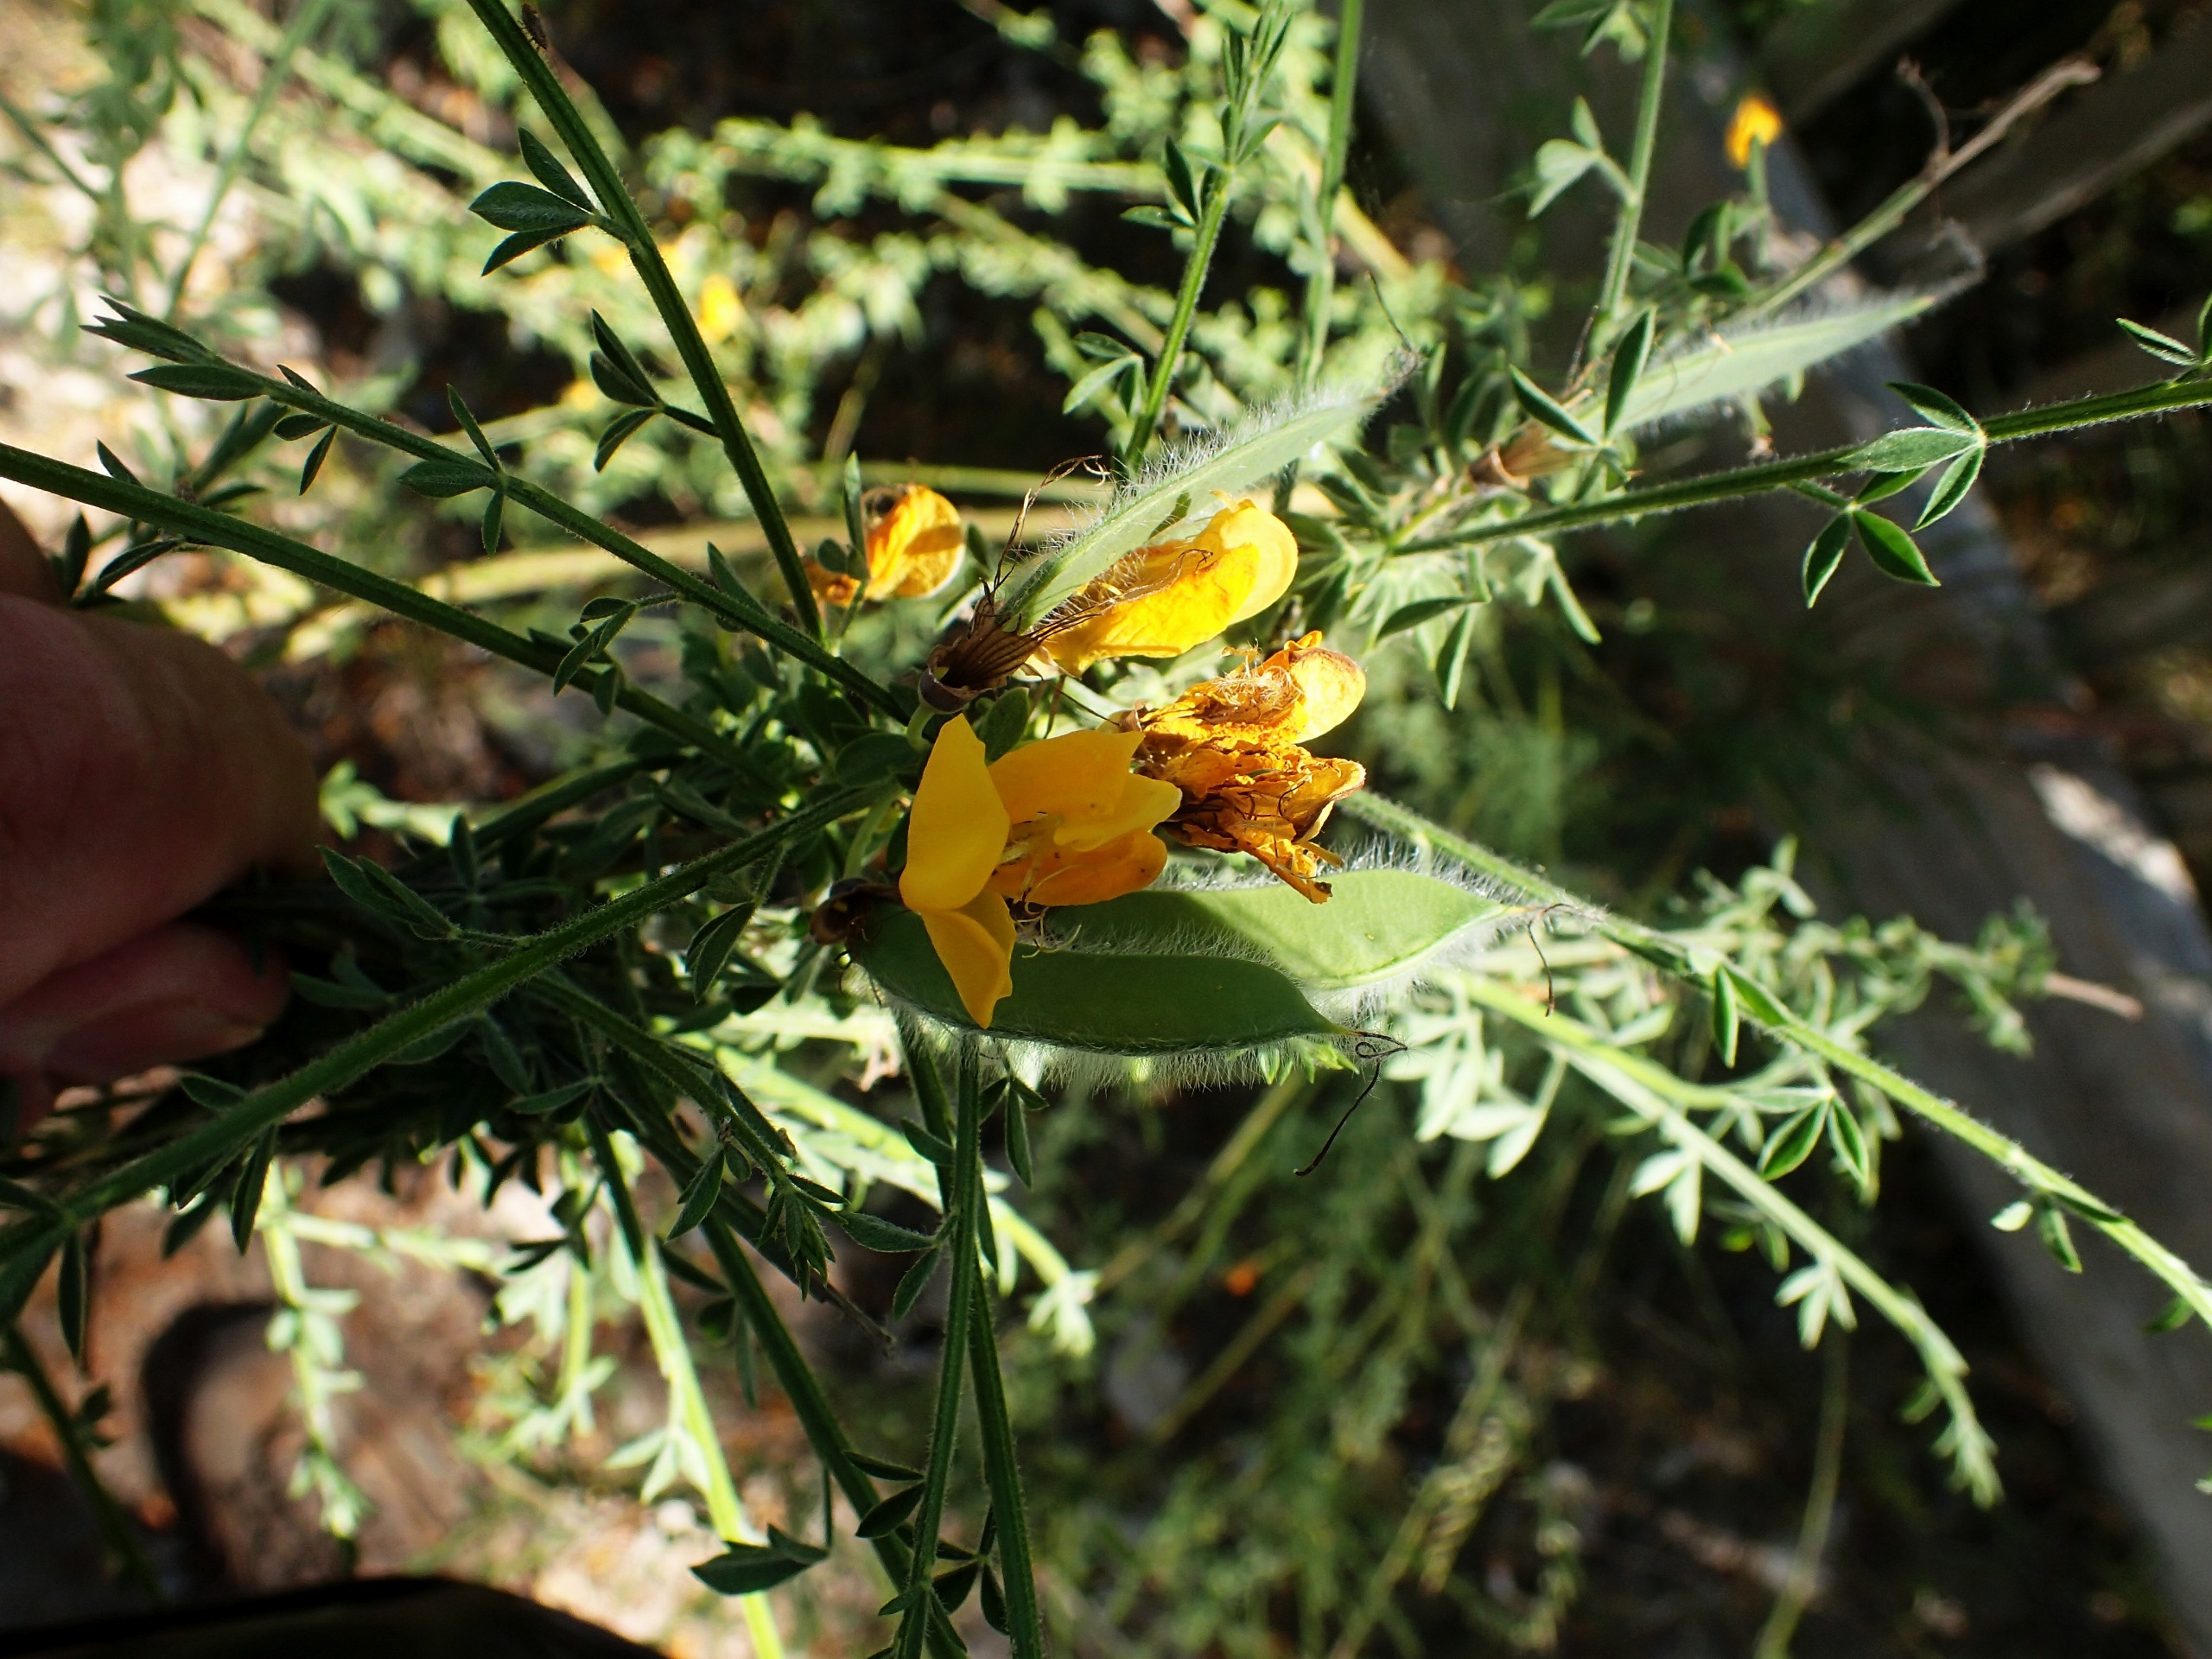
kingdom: Plantae
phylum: Tracheophyta
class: Magnoliopsida
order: Fabales
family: Fabaceae
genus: Cytisus
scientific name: Cytisus scoparius
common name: Almindelig gyvel
